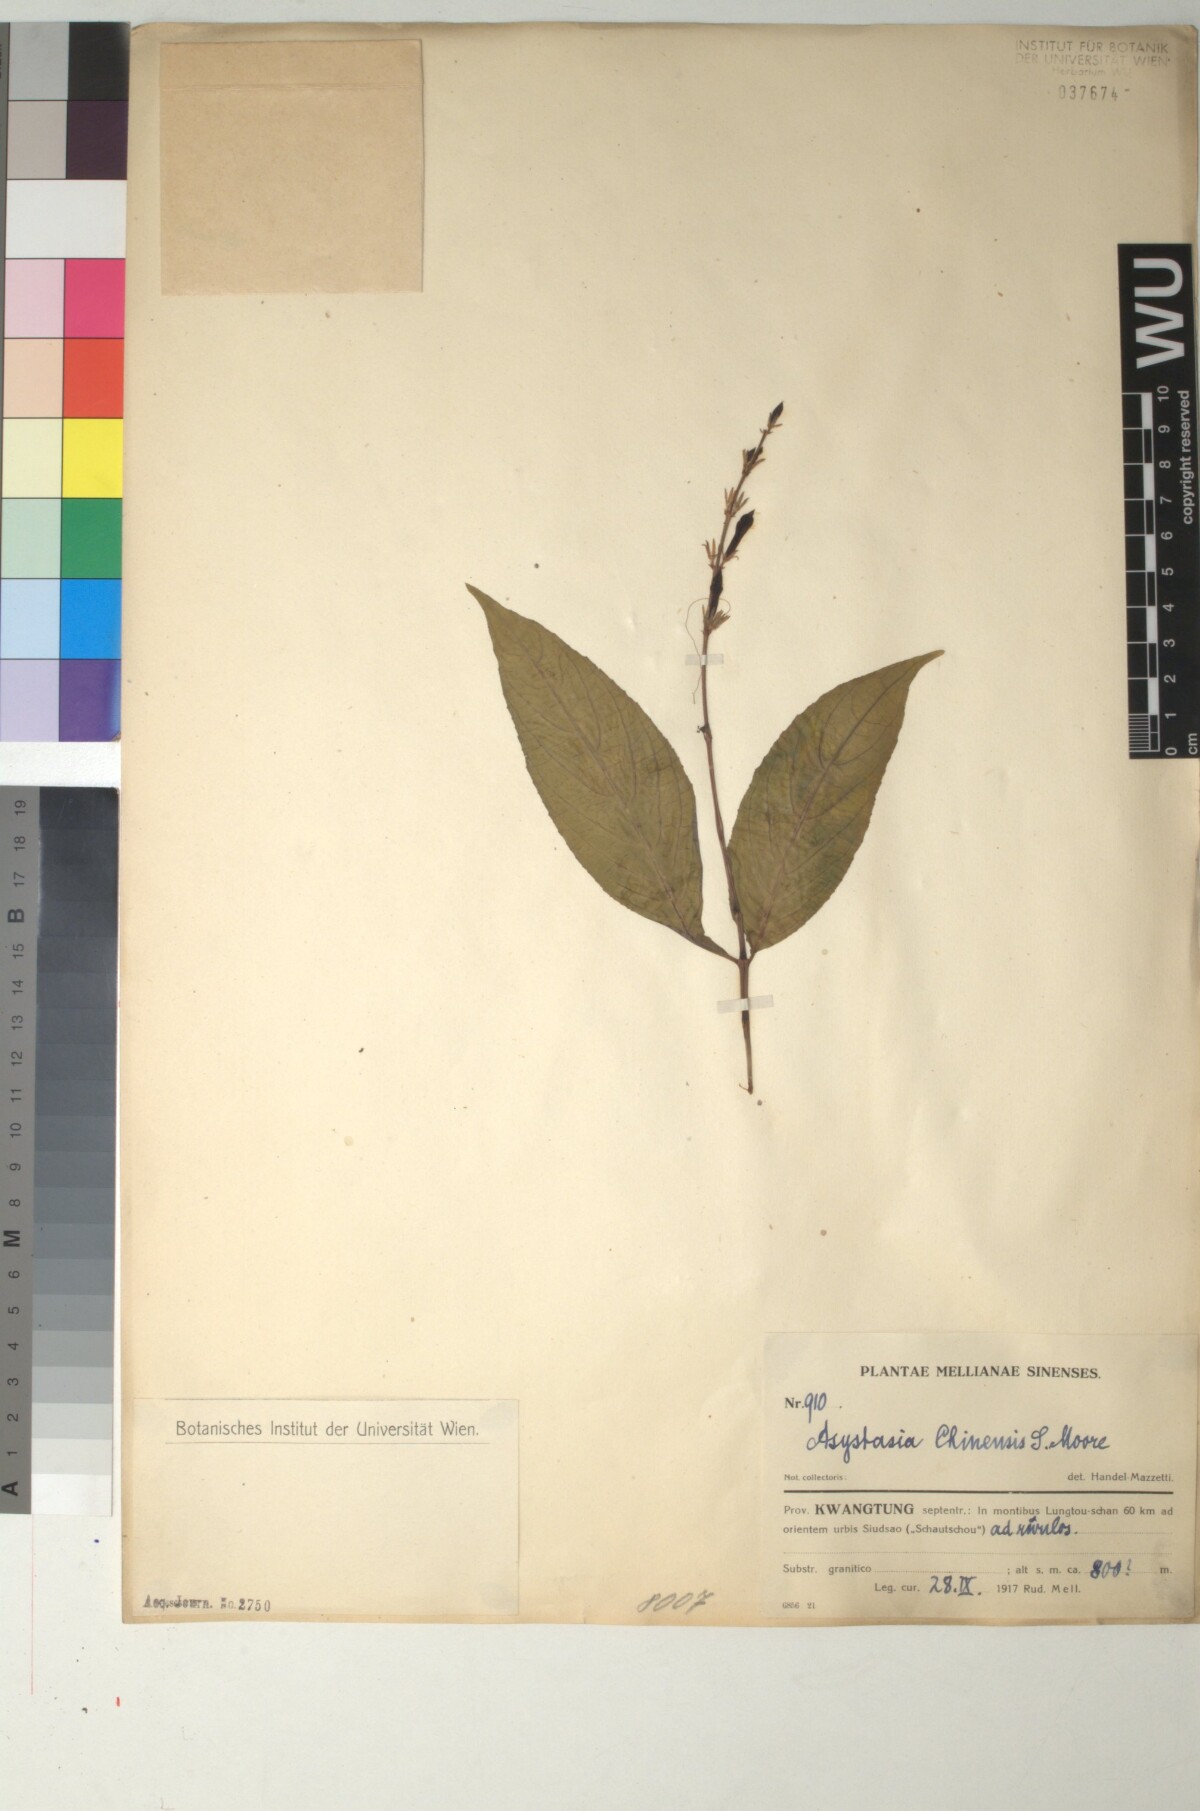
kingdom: Plantae
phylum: Tracheophyta
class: Magnoliopsida
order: Lamiales
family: Acanthaceae
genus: Mackaya
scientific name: Mackaya neesiana
